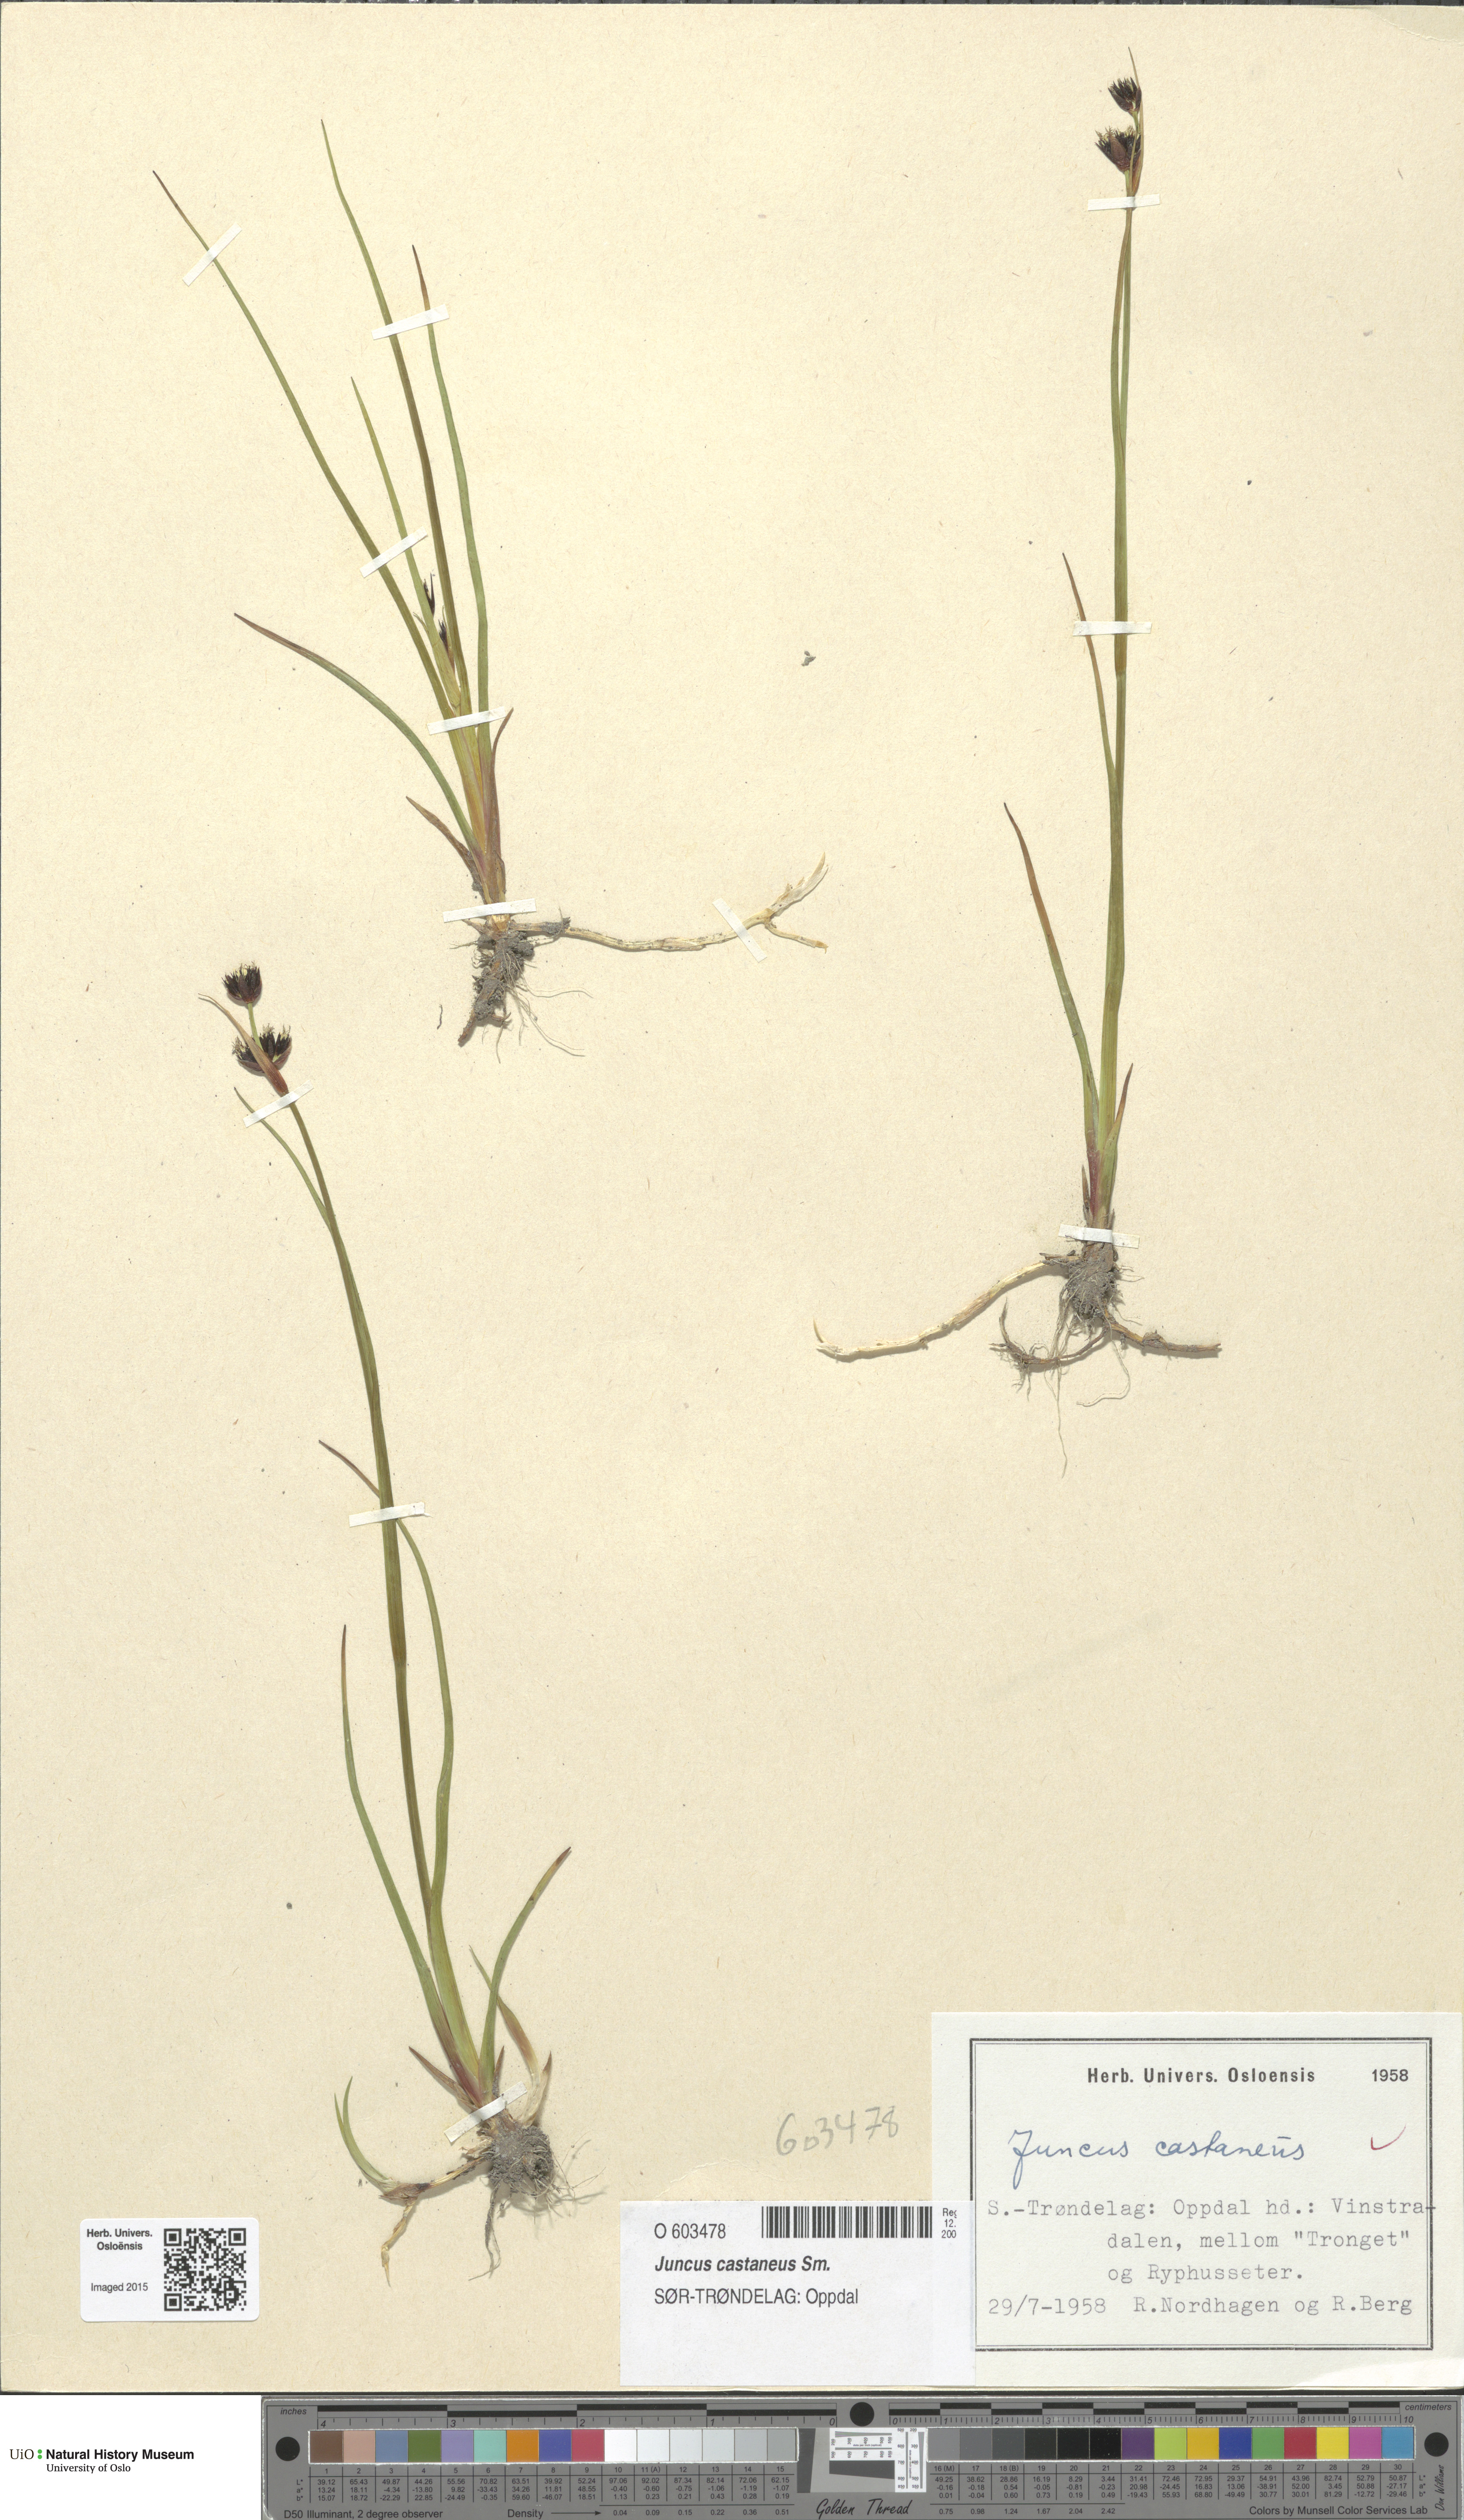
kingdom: Plantae
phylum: Tracheophyta
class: Liliopsida
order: Poales
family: Juncaceae
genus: Juncus
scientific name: Juncus castaneus
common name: Chestnut rush
